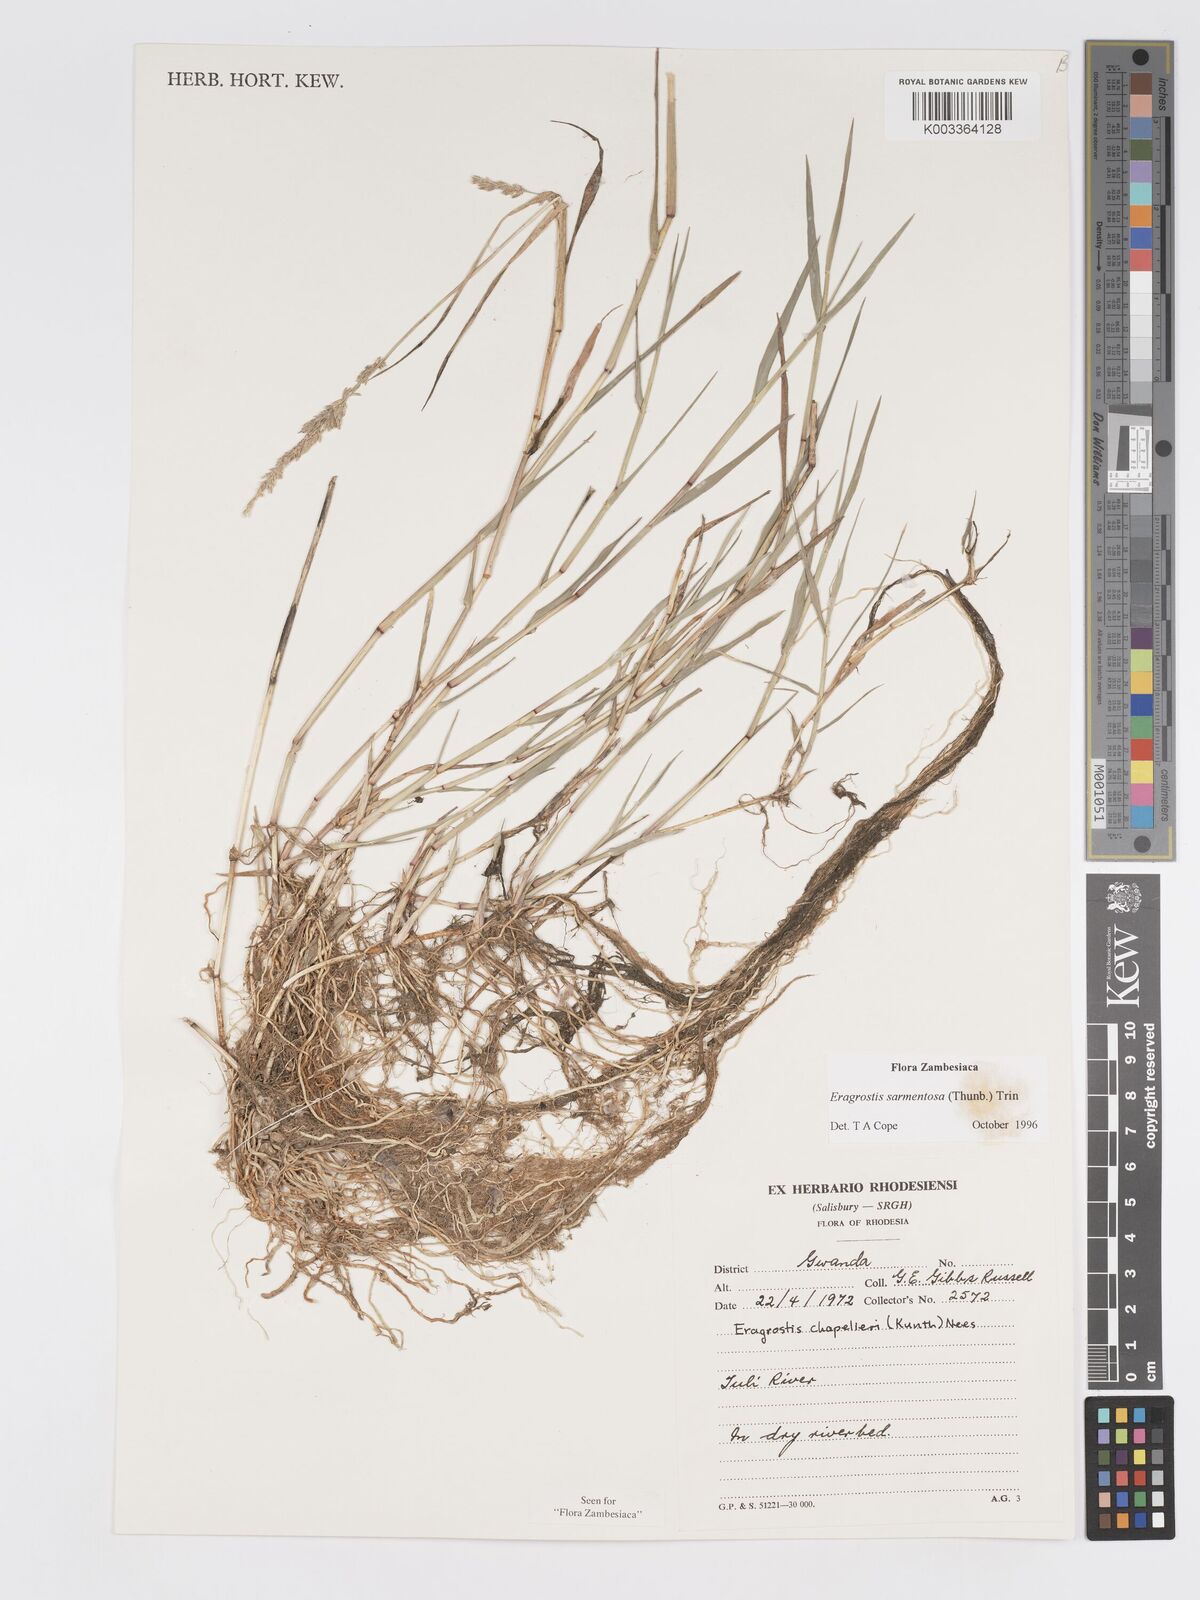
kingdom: Plantae
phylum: Tracheophyta
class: Liliopsida
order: Poales
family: Poaceae
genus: Eragrostis
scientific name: Eragrostis sarmentosa
